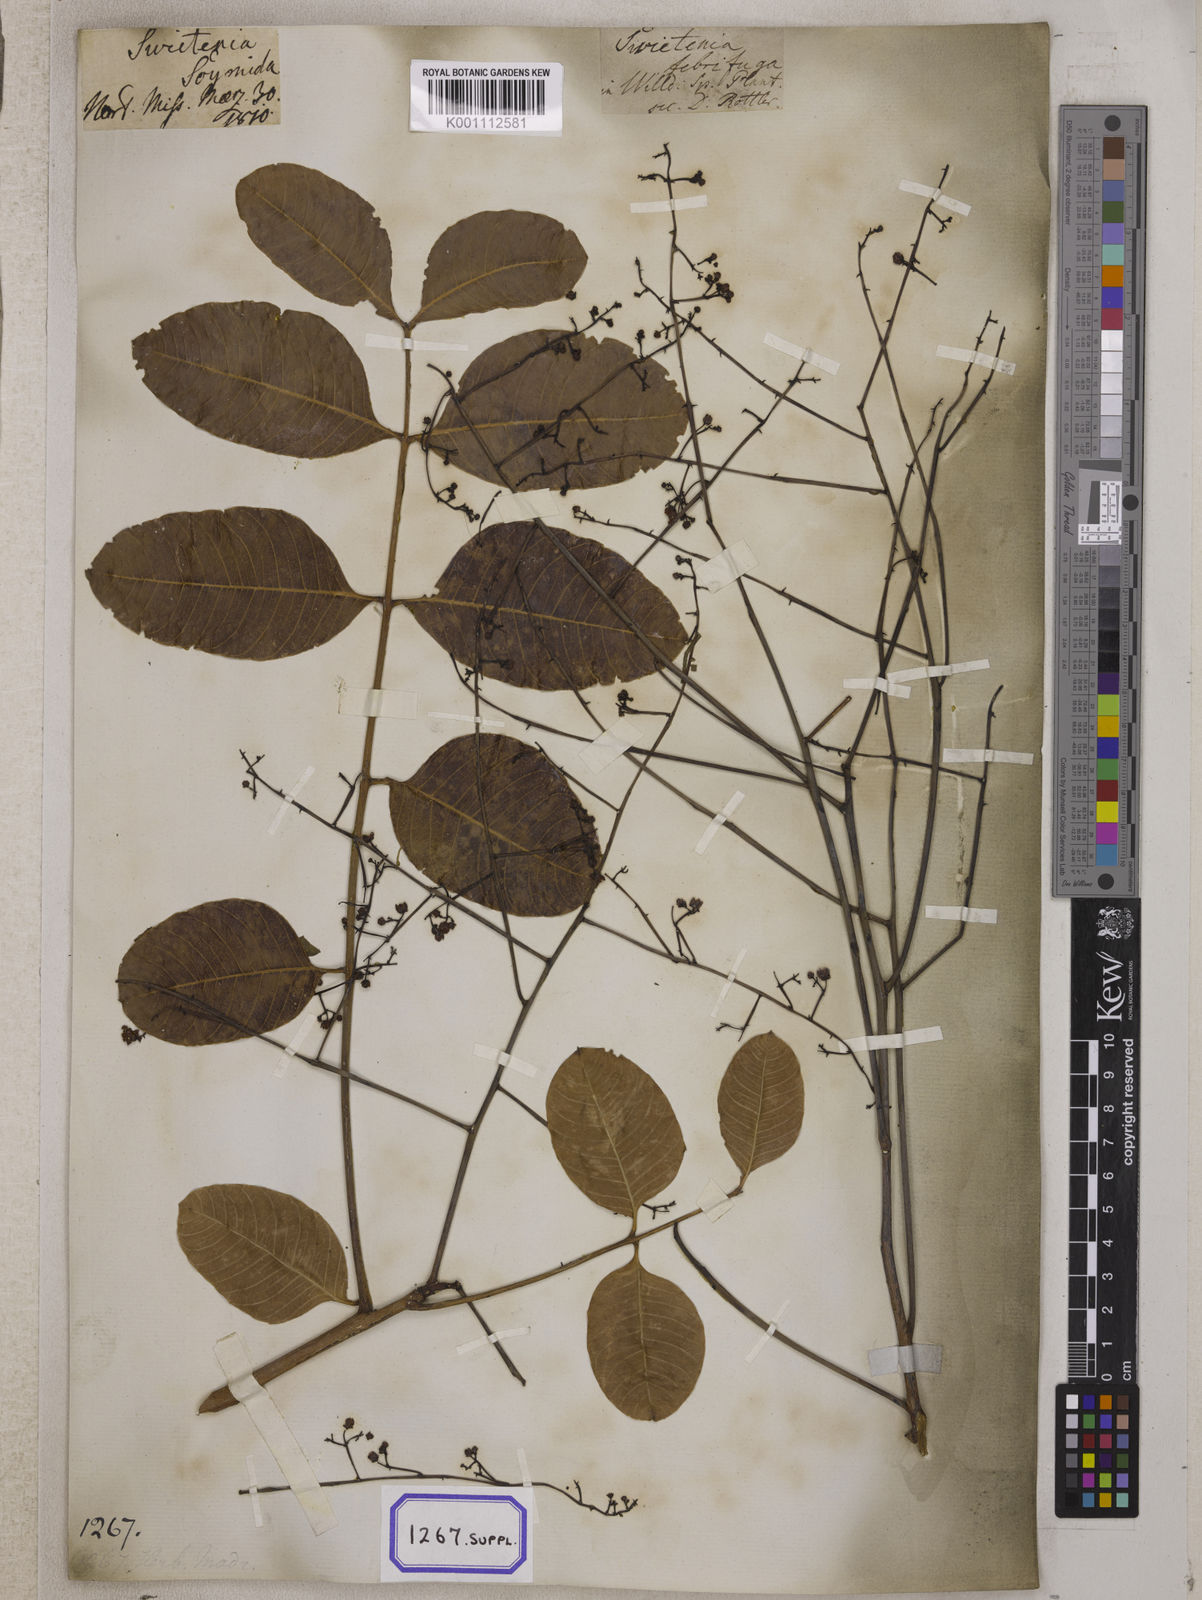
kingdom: Plantae
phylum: Tracheophyta
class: Magnoliopsida
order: Sapindales
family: Meliaceae
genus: Soymida
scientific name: Soymida febrifuga
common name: Indian-redwood
